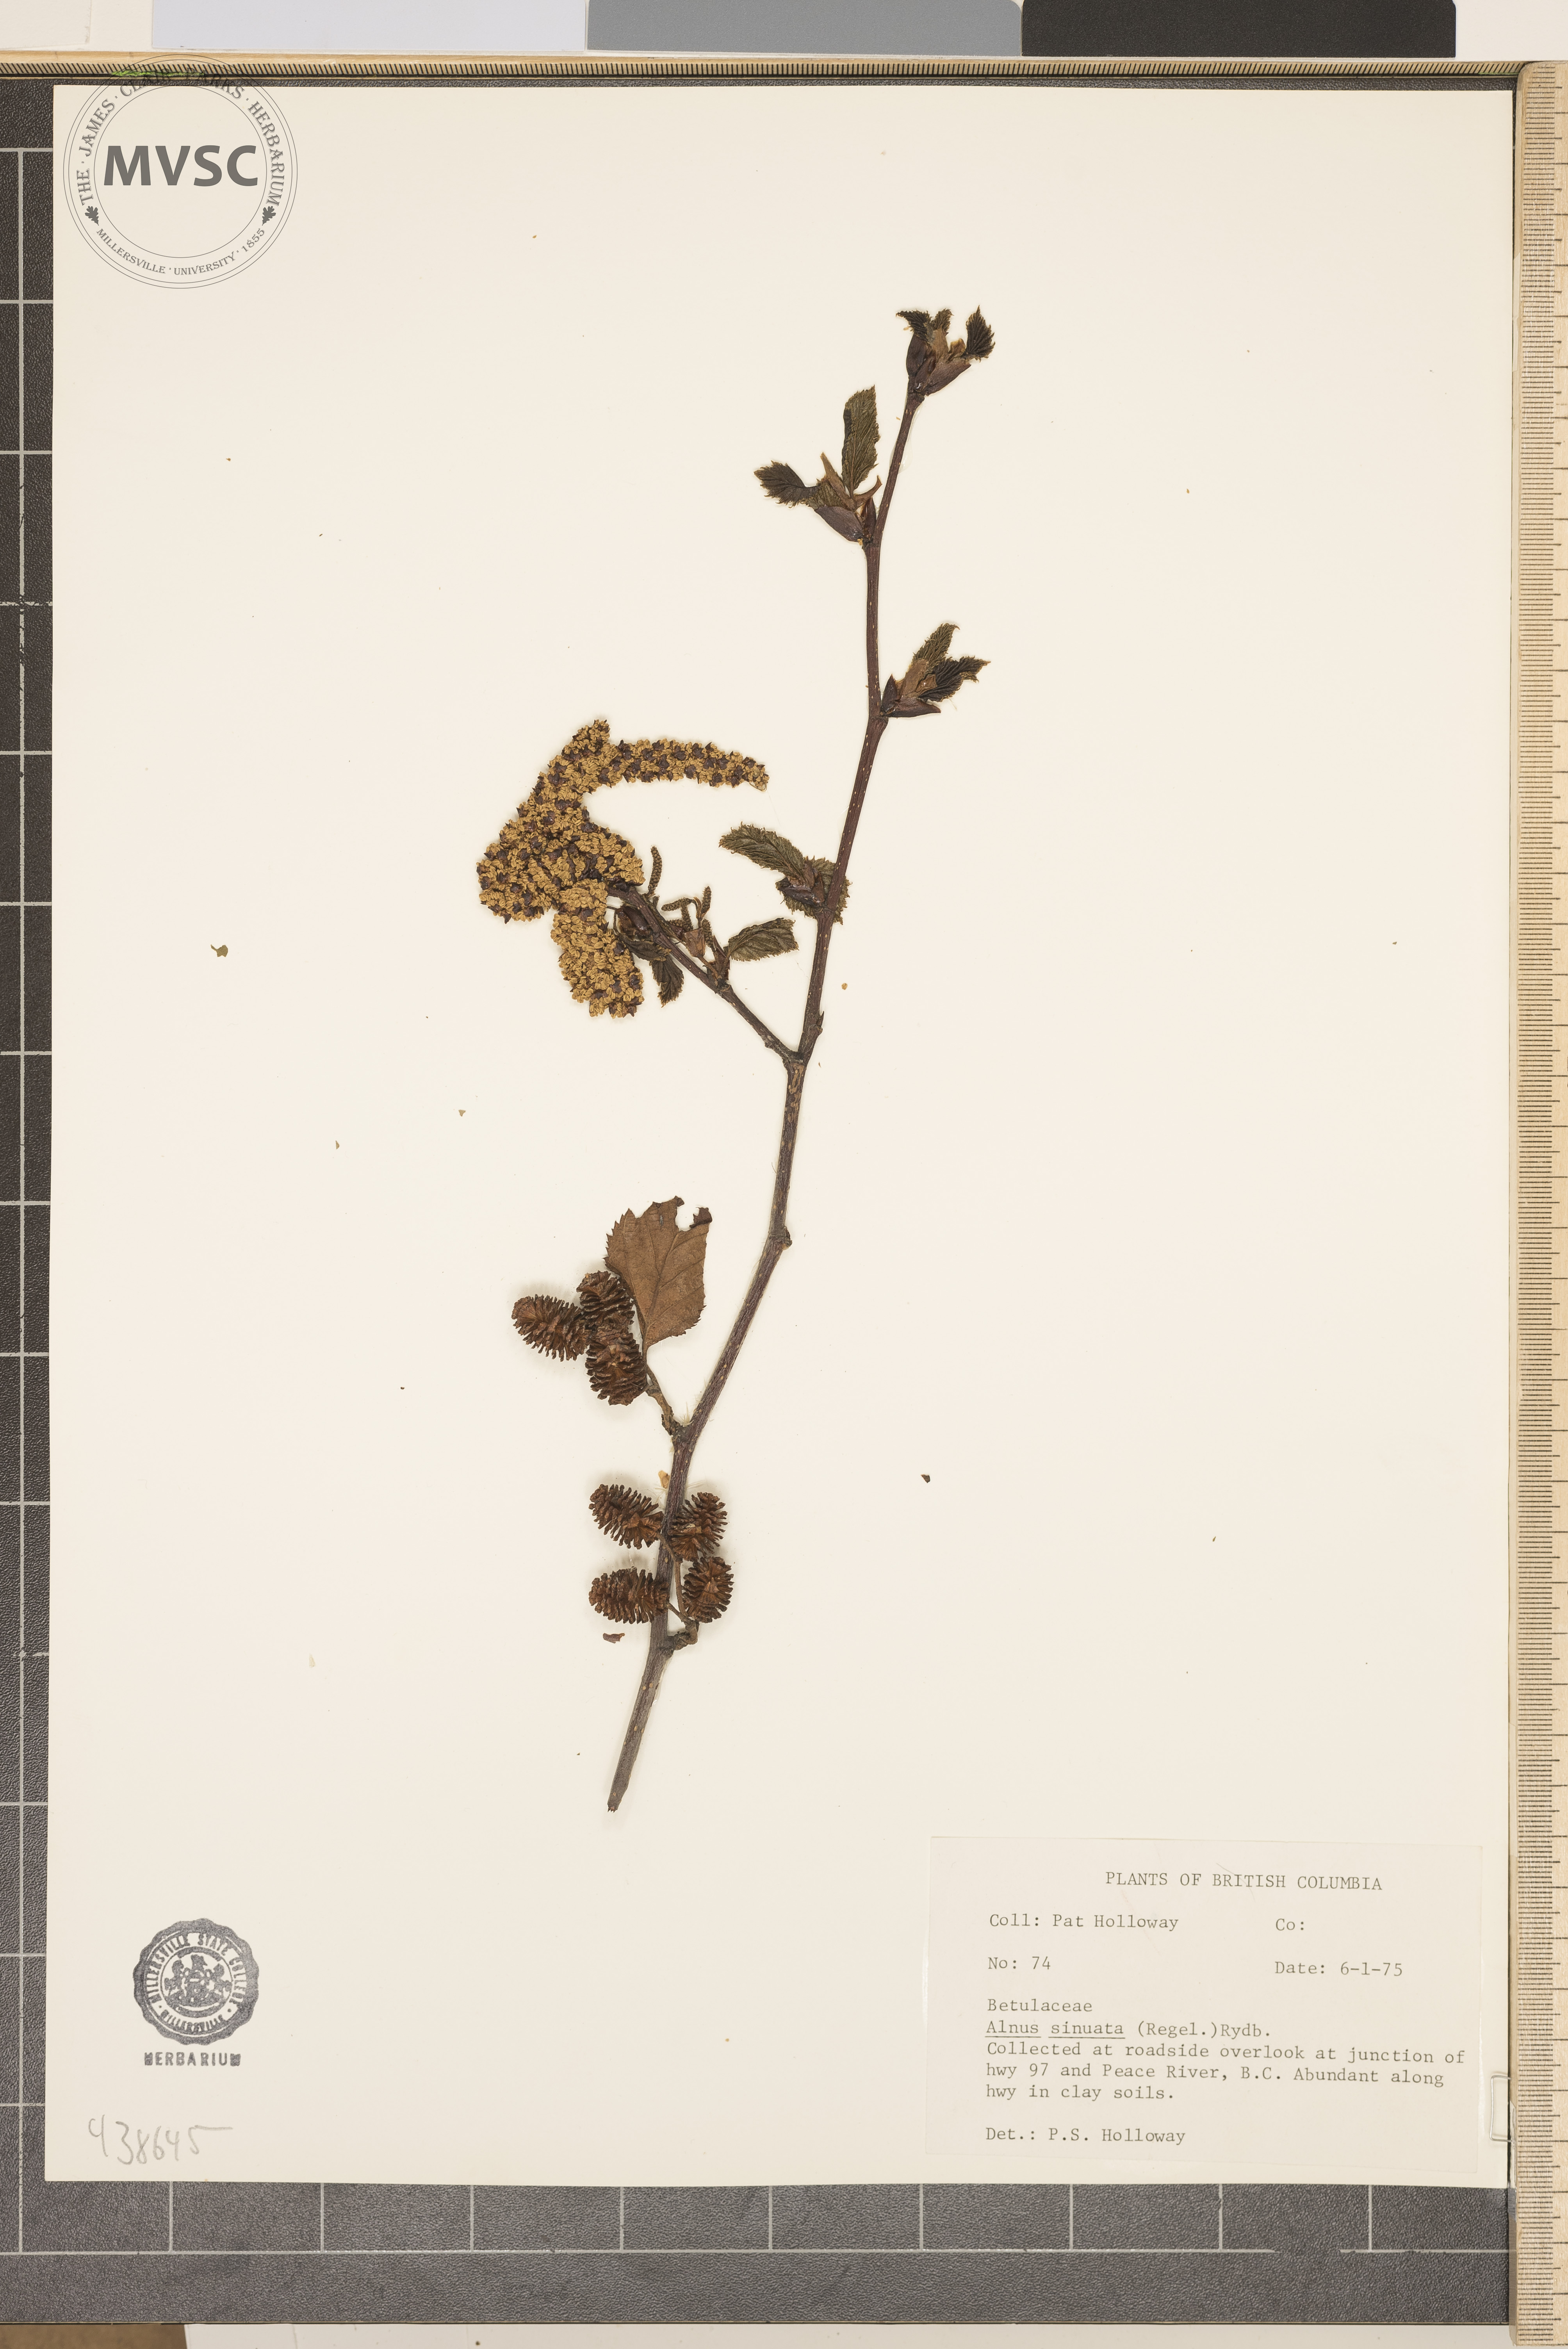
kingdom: Plantae
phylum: Tracheophyta
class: Magnoliopsida
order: Fagales
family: Betulaceae
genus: Alnus
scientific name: Alnus alnobetula
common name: Green alder
